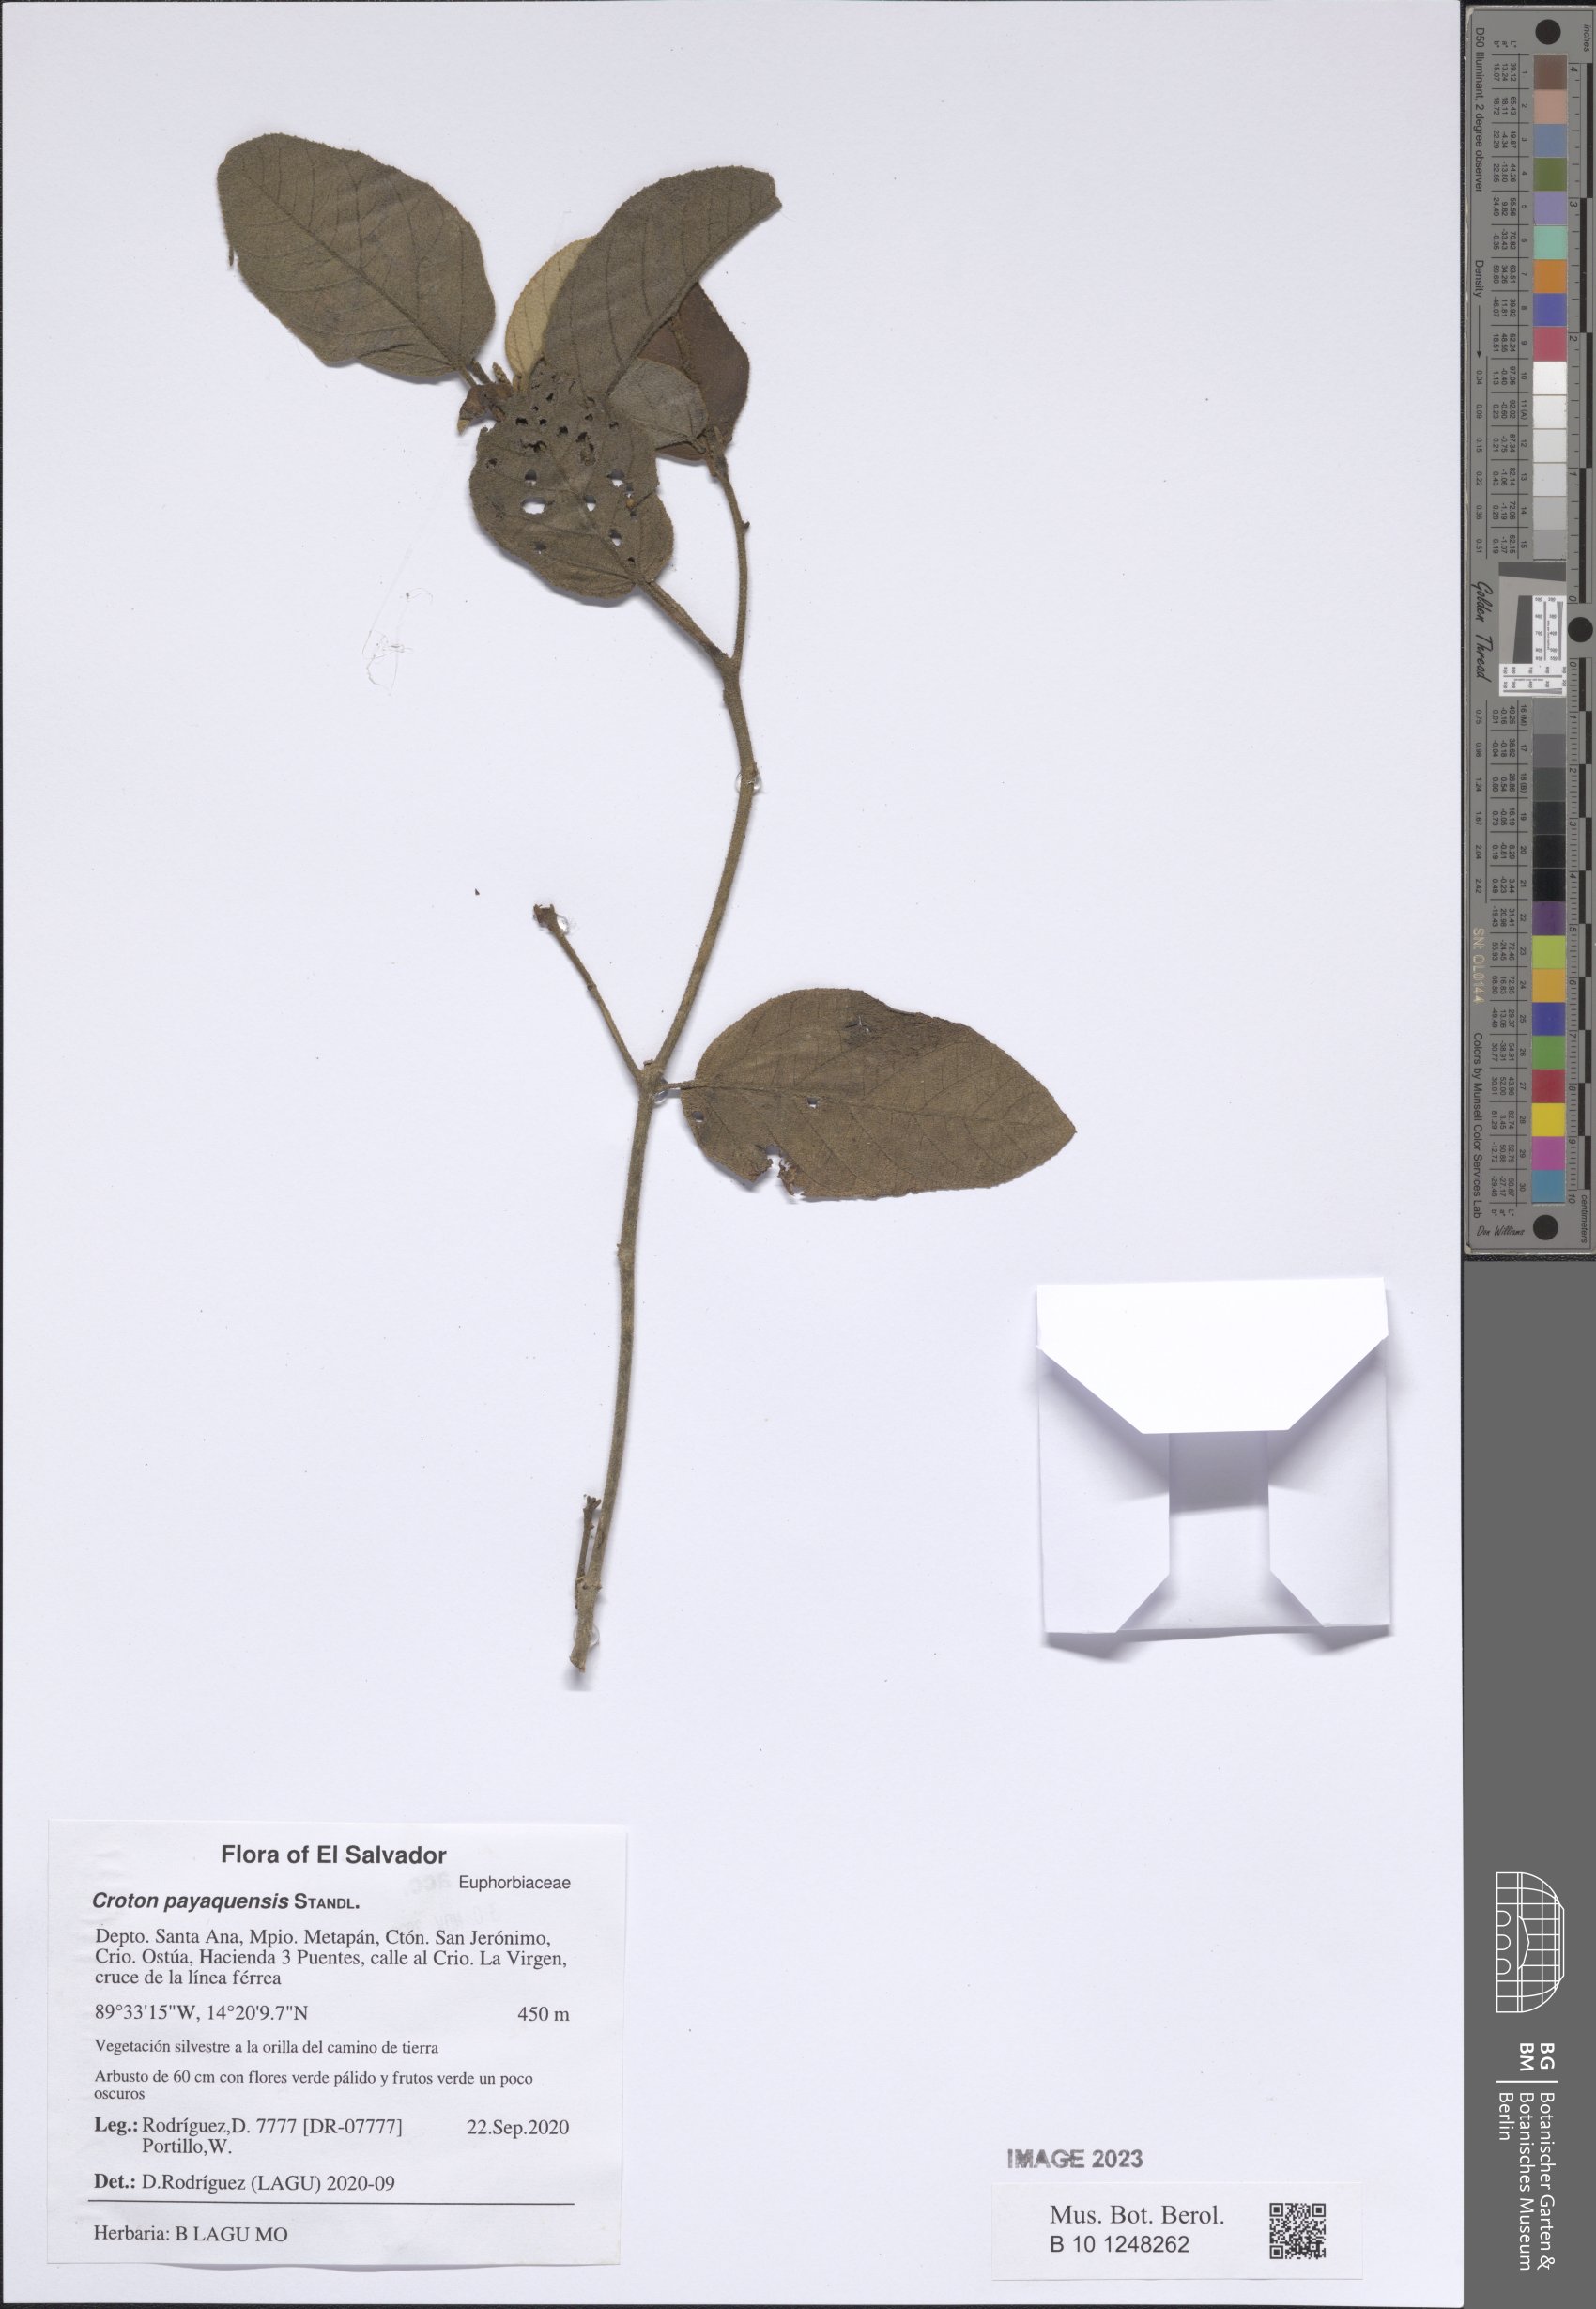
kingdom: Plantae
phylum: Tracheophyta
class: Magnoliopsida
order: Malpighiales
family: Euphorbiaceae
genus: Croton
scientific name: Croton payaquensis
